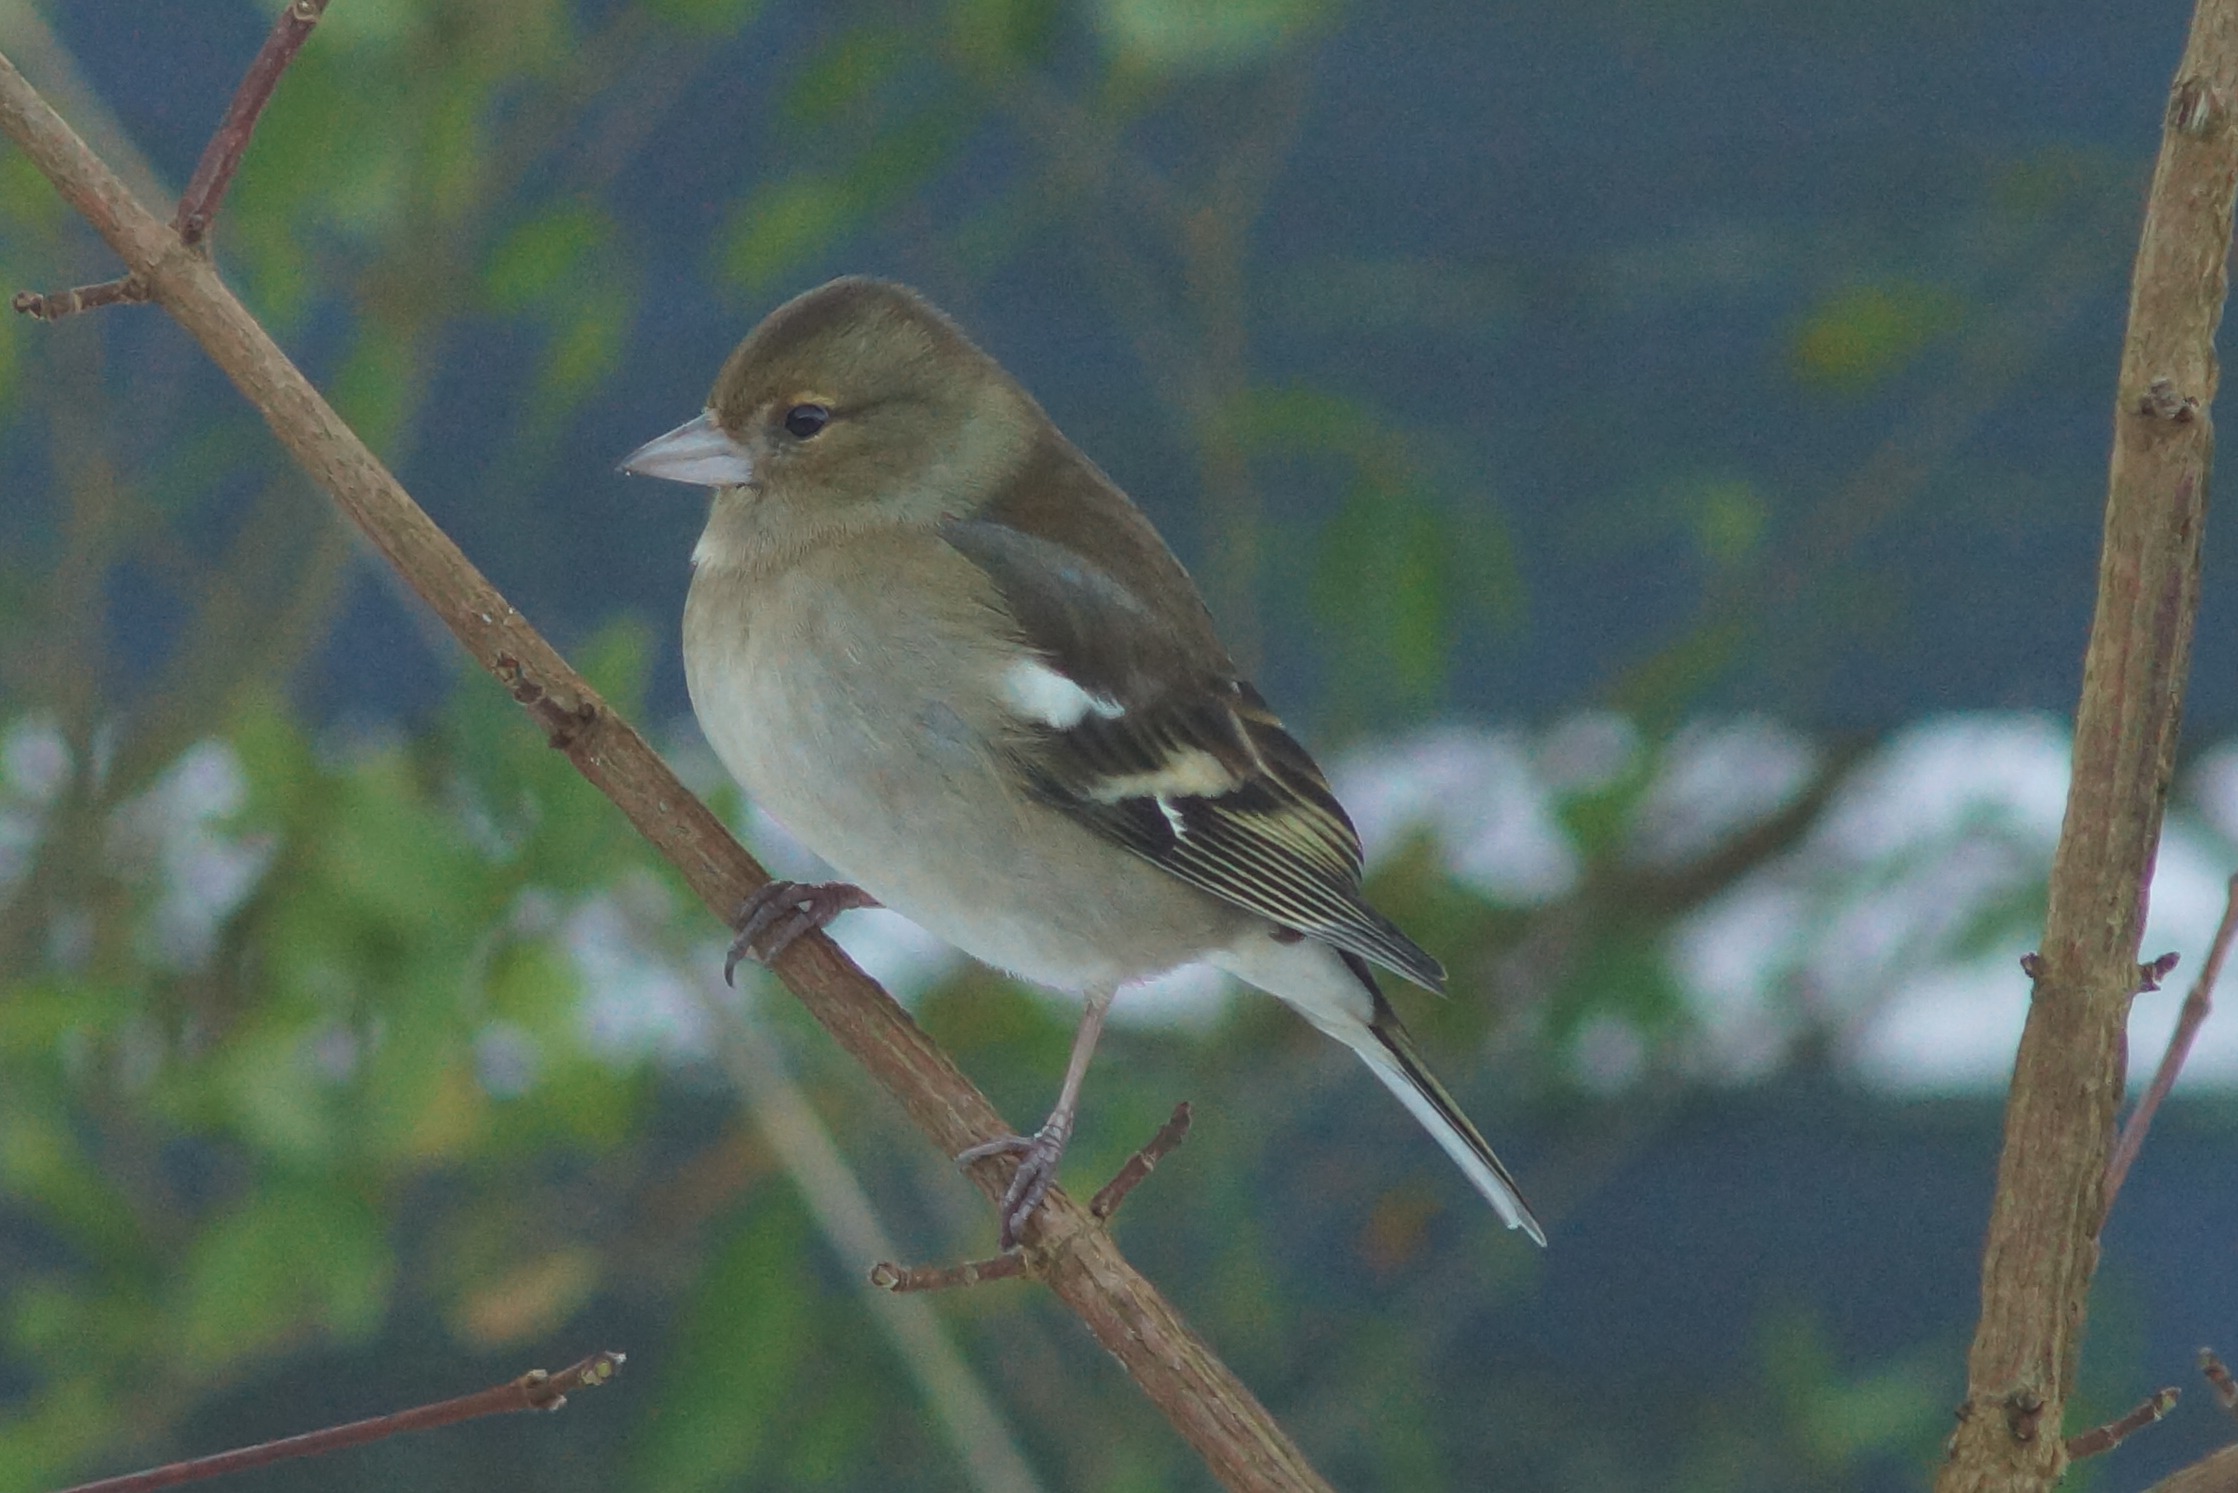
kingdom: Animalia
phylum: Chordata
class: Aves
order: Passeriformes
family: Fringillidae
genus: Fringilla
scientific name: Fringilla coelebs
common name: Bogfinke
